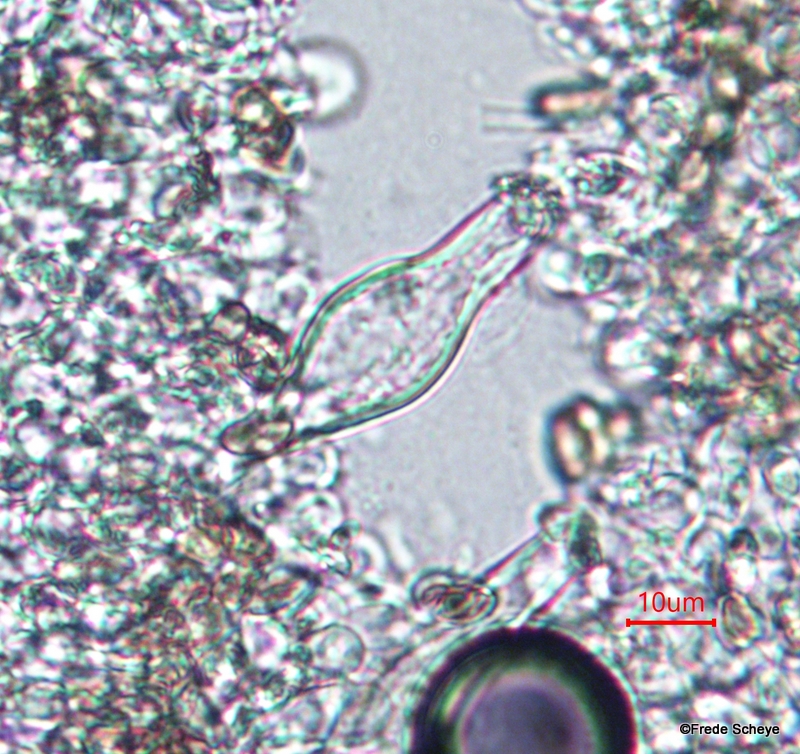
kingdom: Fungi
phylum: Basidiomycota
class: Agaricomycetes
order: Agaricales
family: Inocybaceae
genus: Inocybe
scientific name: Inocybe
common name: almindelig trævlhat
